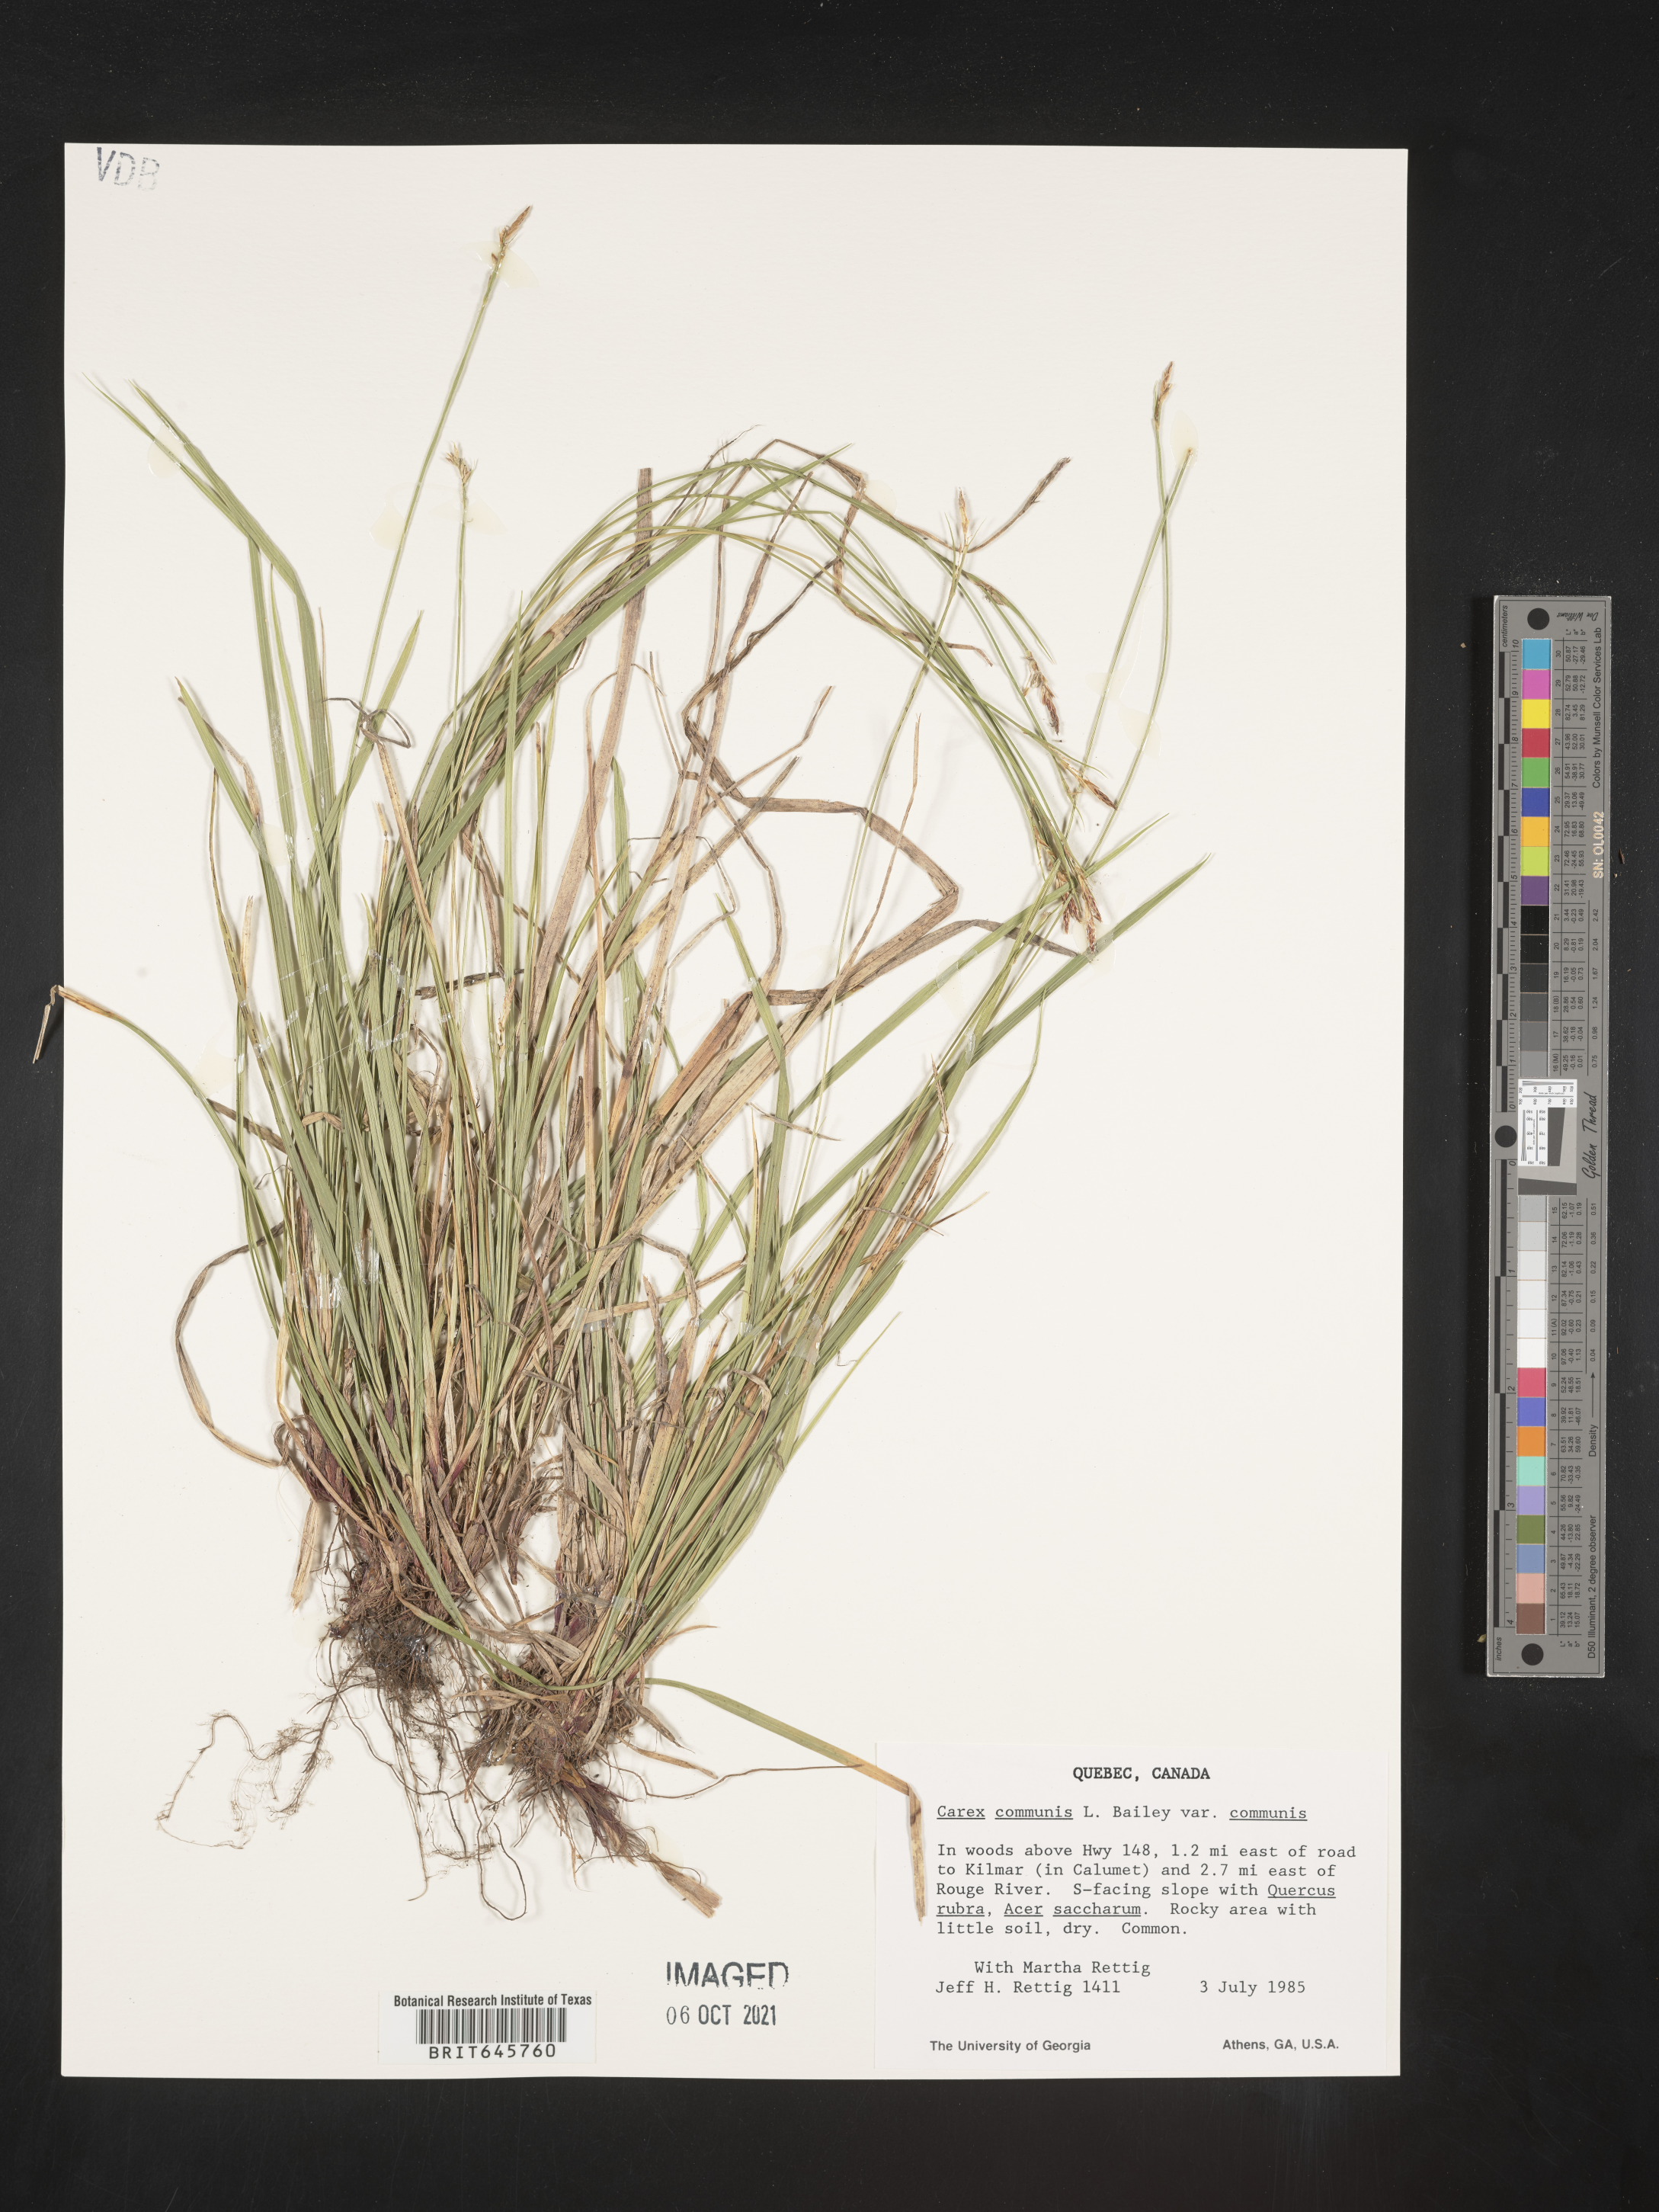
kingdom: Plantae
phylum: Tracheophyta
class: Liliopsida
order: Poales
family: Cyperaceae
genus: Carex
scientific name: Carex communis
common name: Colonial oak sedge
